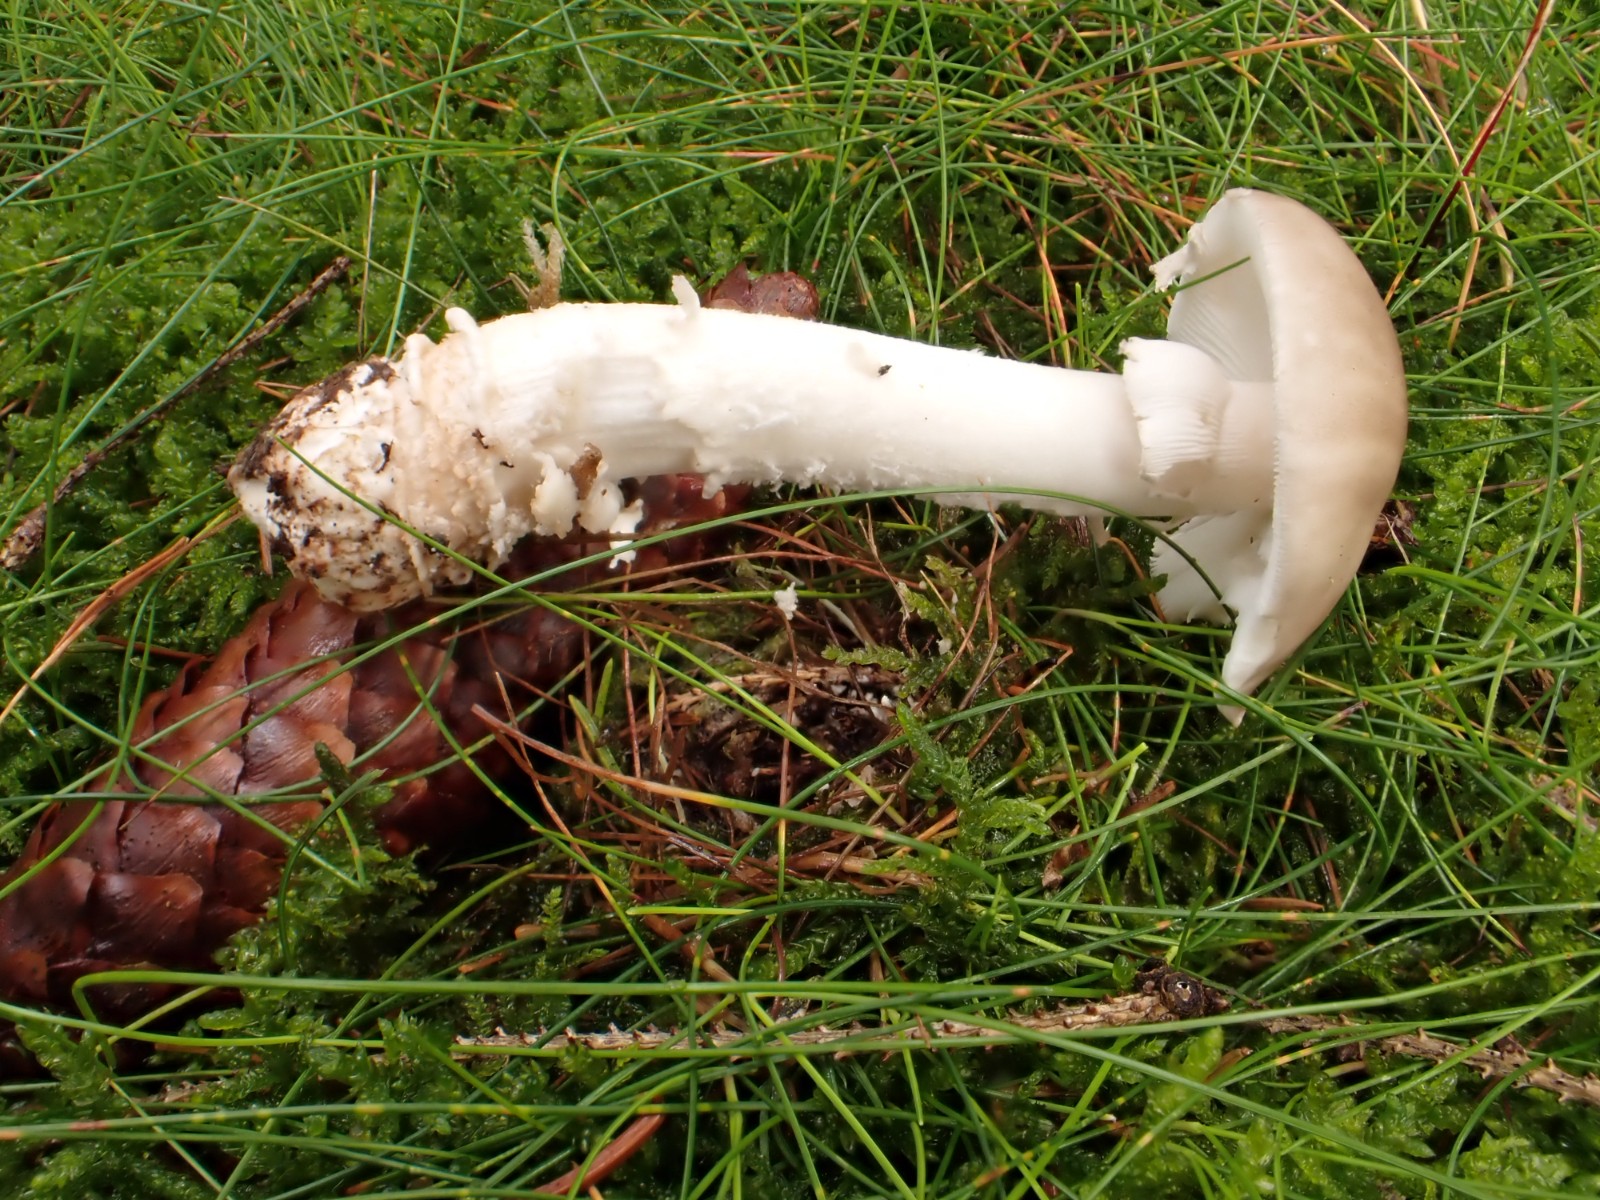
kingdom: Fungi
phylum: Basidiomycota
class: Agaricomycetes
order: Agaricales
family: Amanitaceae
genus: Amanita
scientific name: Amanita porphyria
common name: porfyr-fluesvamp
